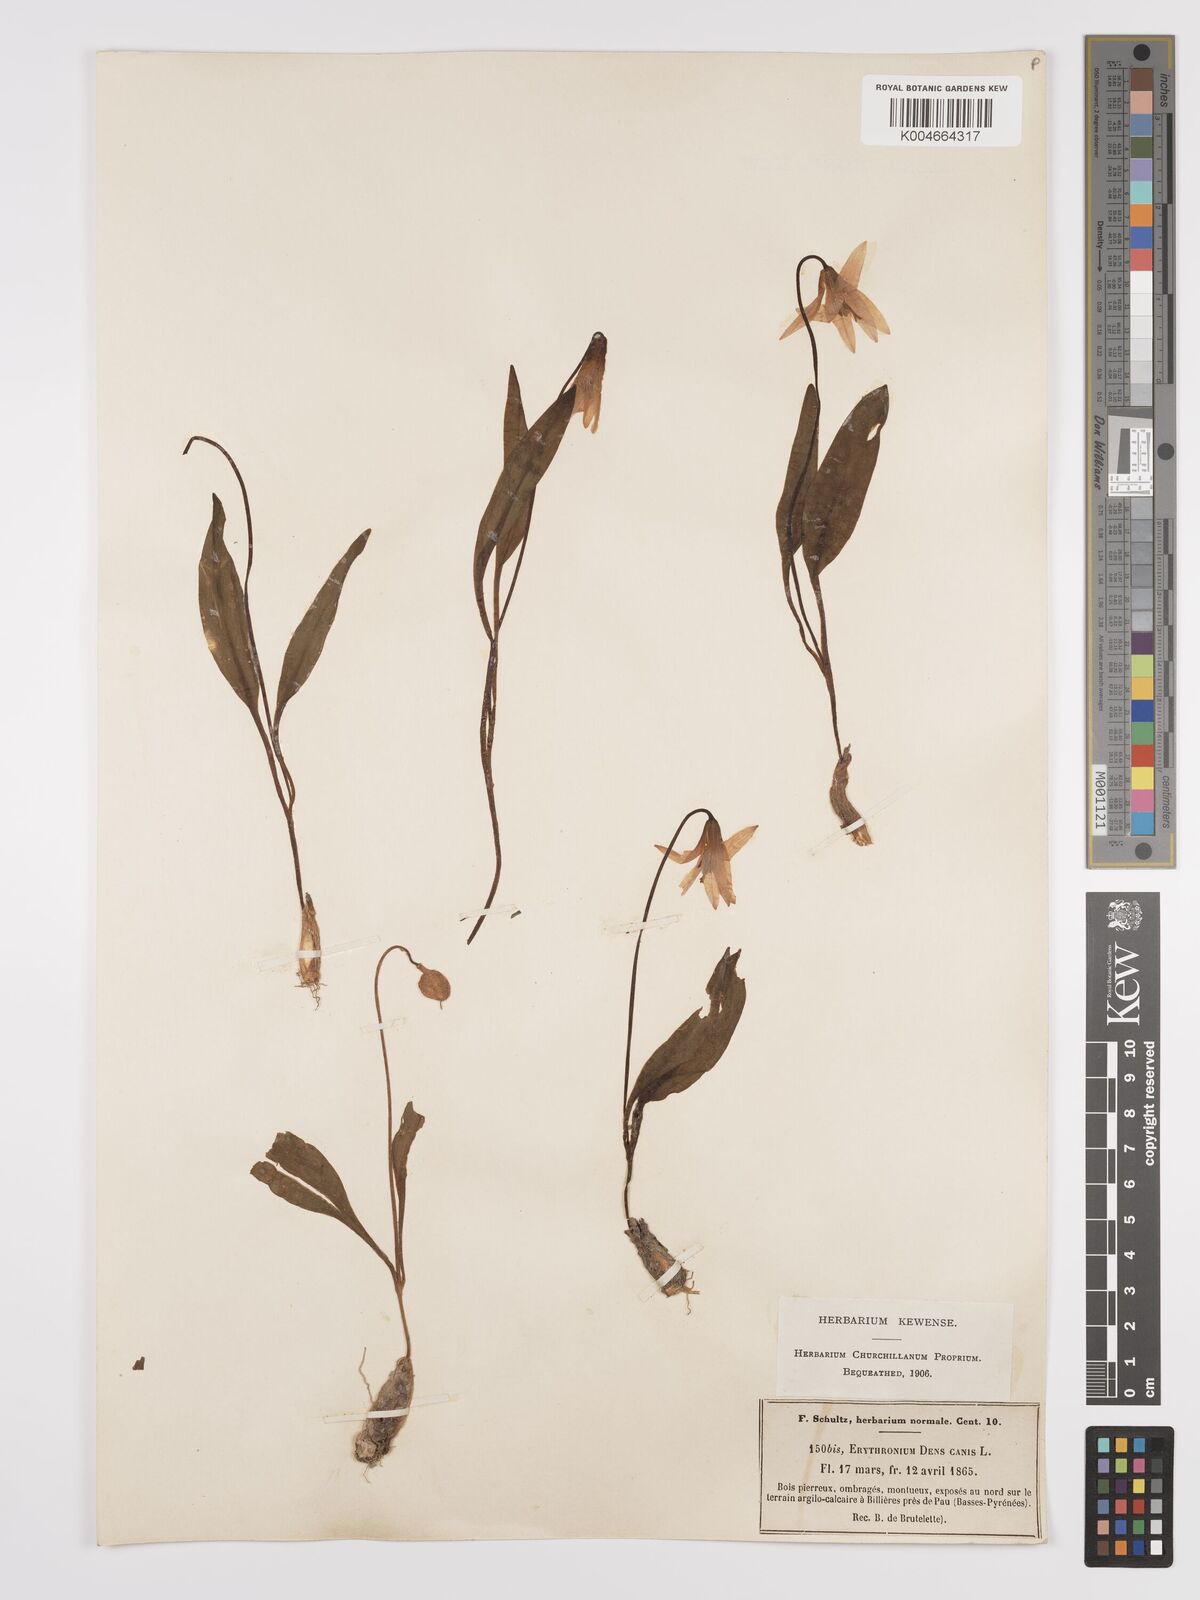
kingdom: Plantae
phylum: Tracheophyta
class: Liliopsida
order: Liliales
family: Liliaceae
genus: Erythronium
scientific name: Erythronium dens-canis
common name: Dog's-tooth-violet
